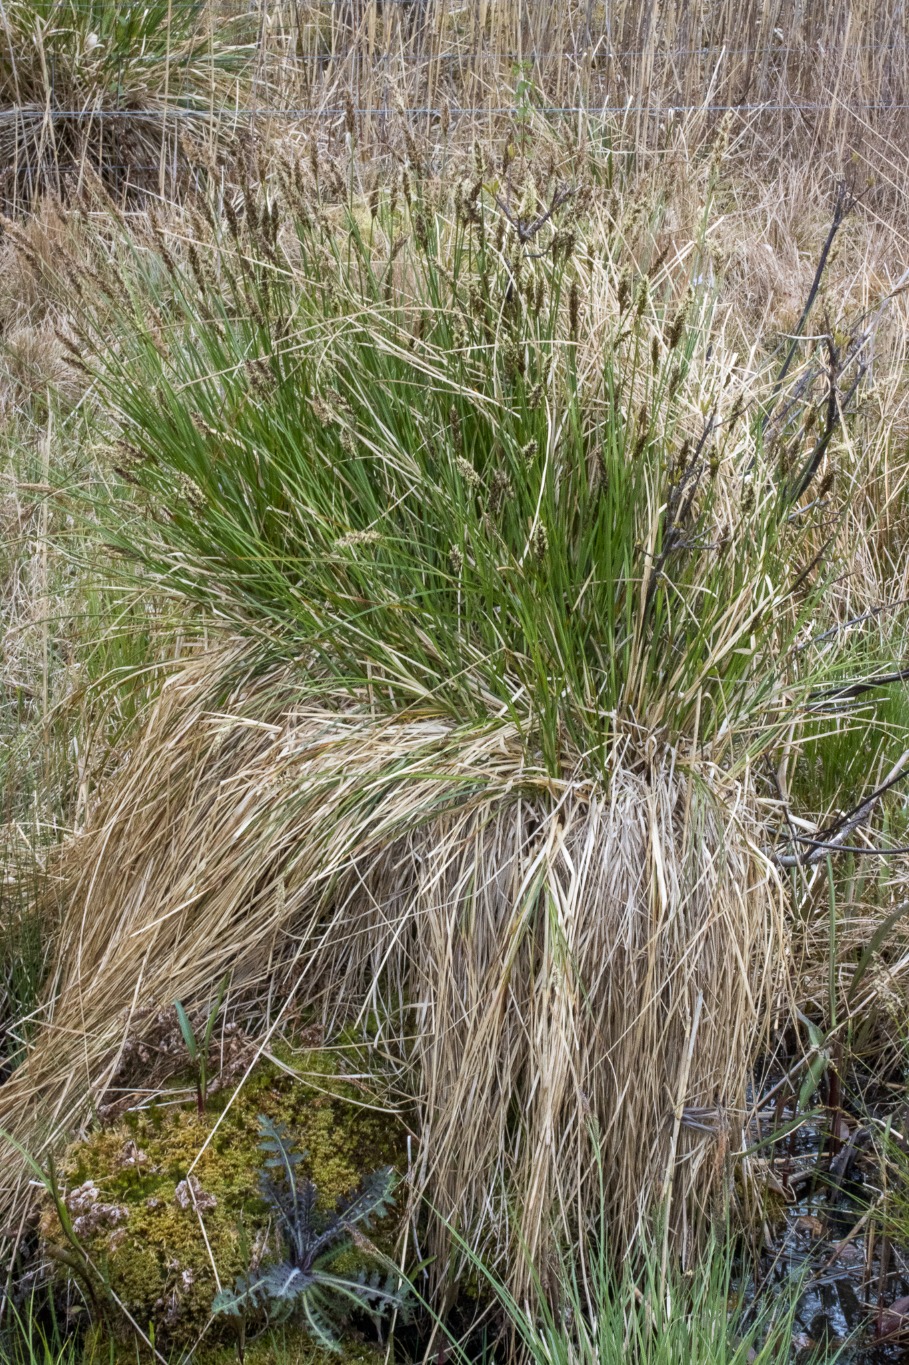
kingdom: Plantae
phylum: Tracheophyta
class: Liliopsida
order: Poales
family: Cyperaceae
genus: Carex
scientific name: Carex paniculata
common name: Top-star
